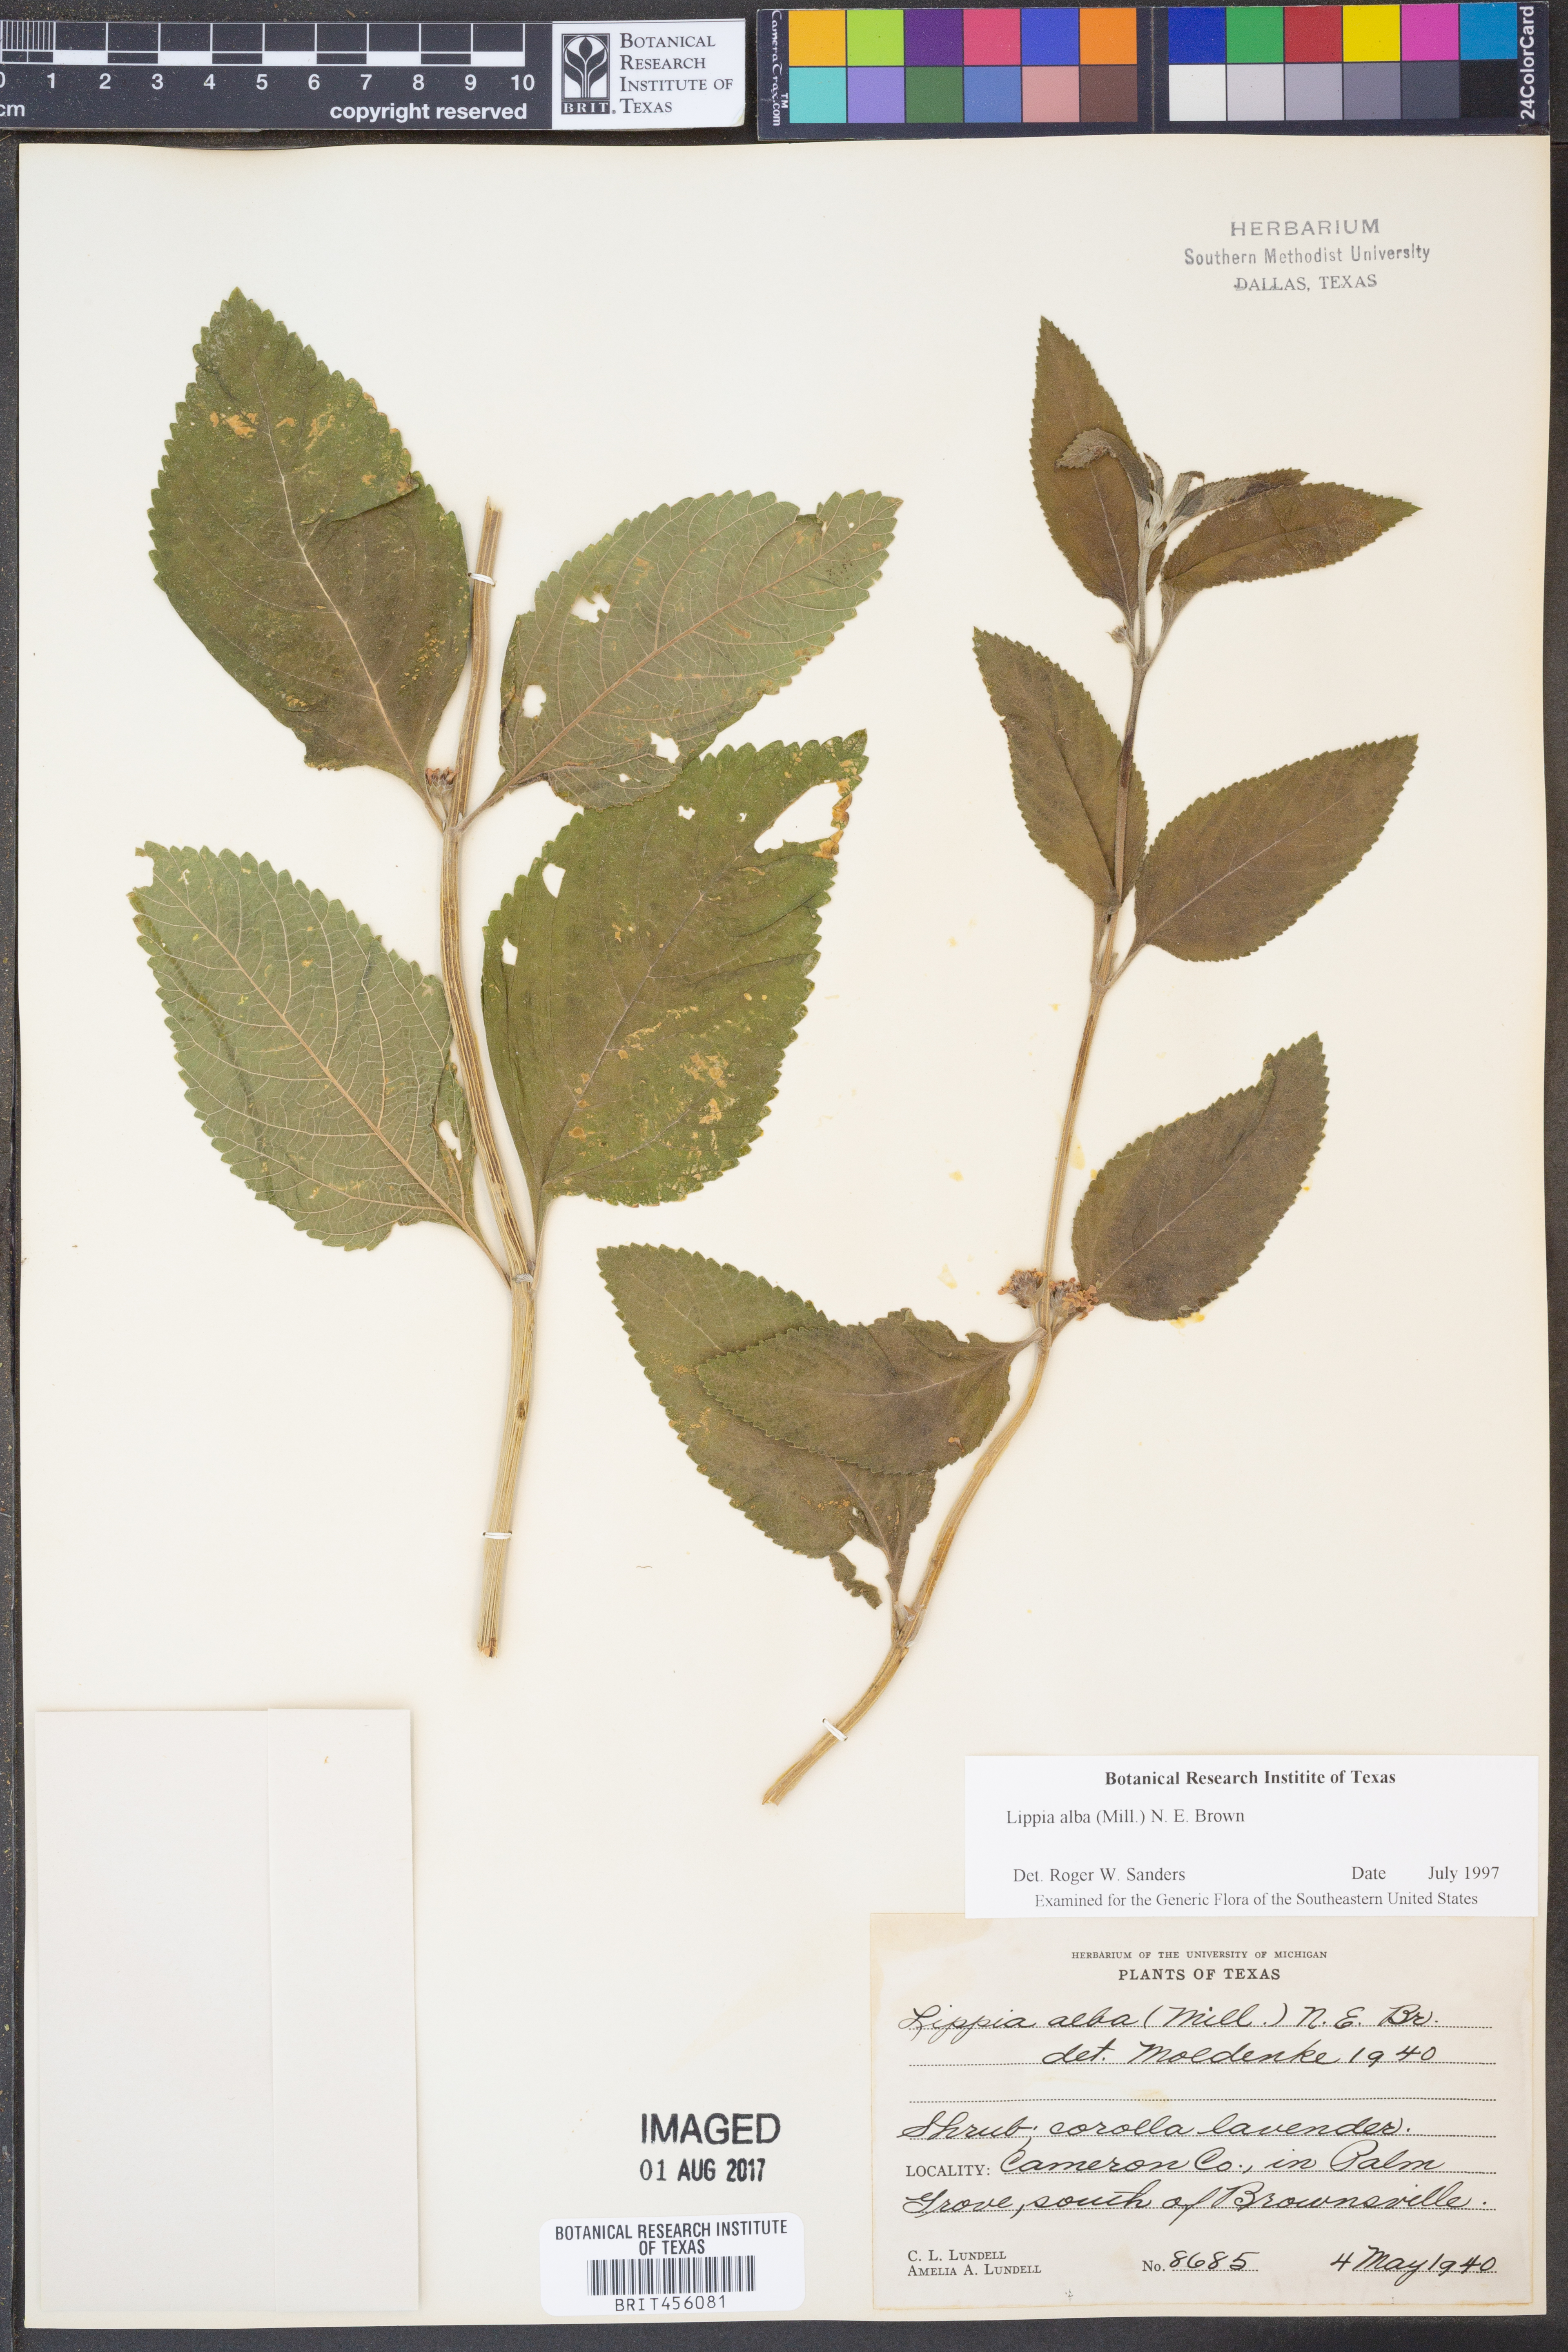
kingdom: Plantae
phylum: Tracheophyta
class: Magnoliopsida
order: Lamiales
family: Verbenaceae
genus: Lippia
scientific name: Lippia alba
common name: Bushy matgrass
